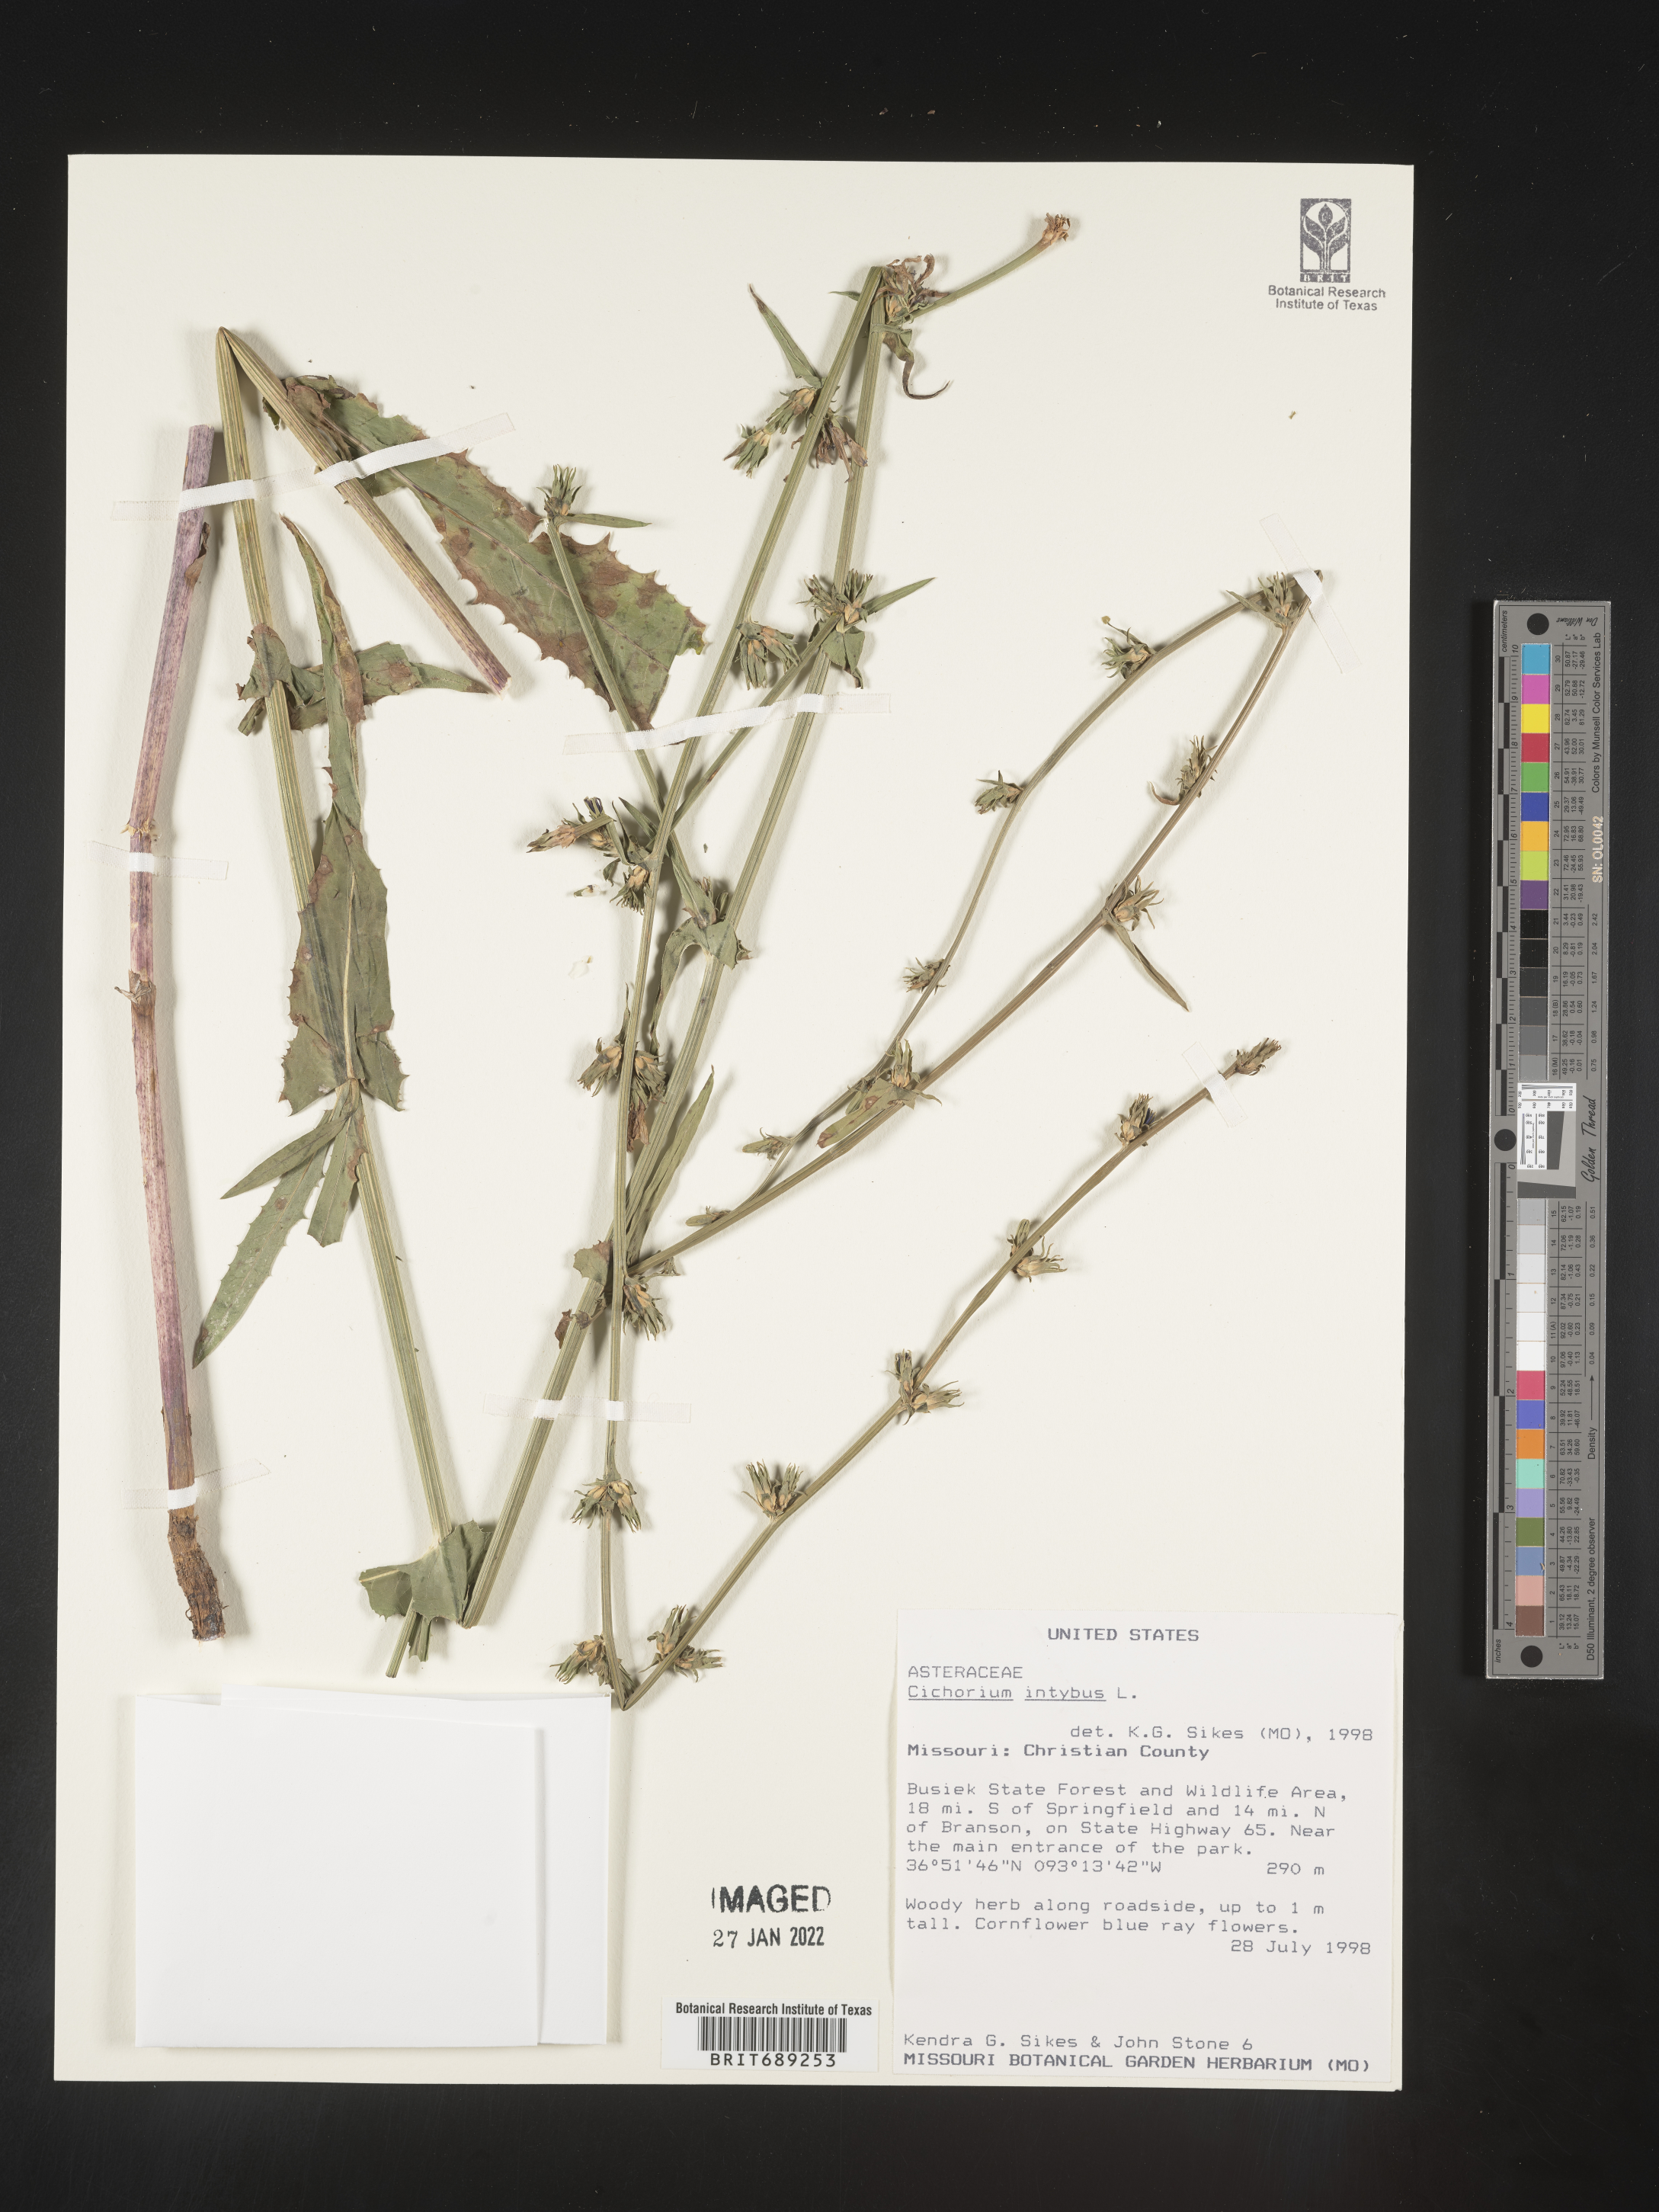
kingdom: Plantae
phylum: Tracheophyta
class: Magnoliopsida
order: Asterales
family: Asteraceae
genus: Cichorium
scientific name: Cichorium intybus
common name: Chicory
